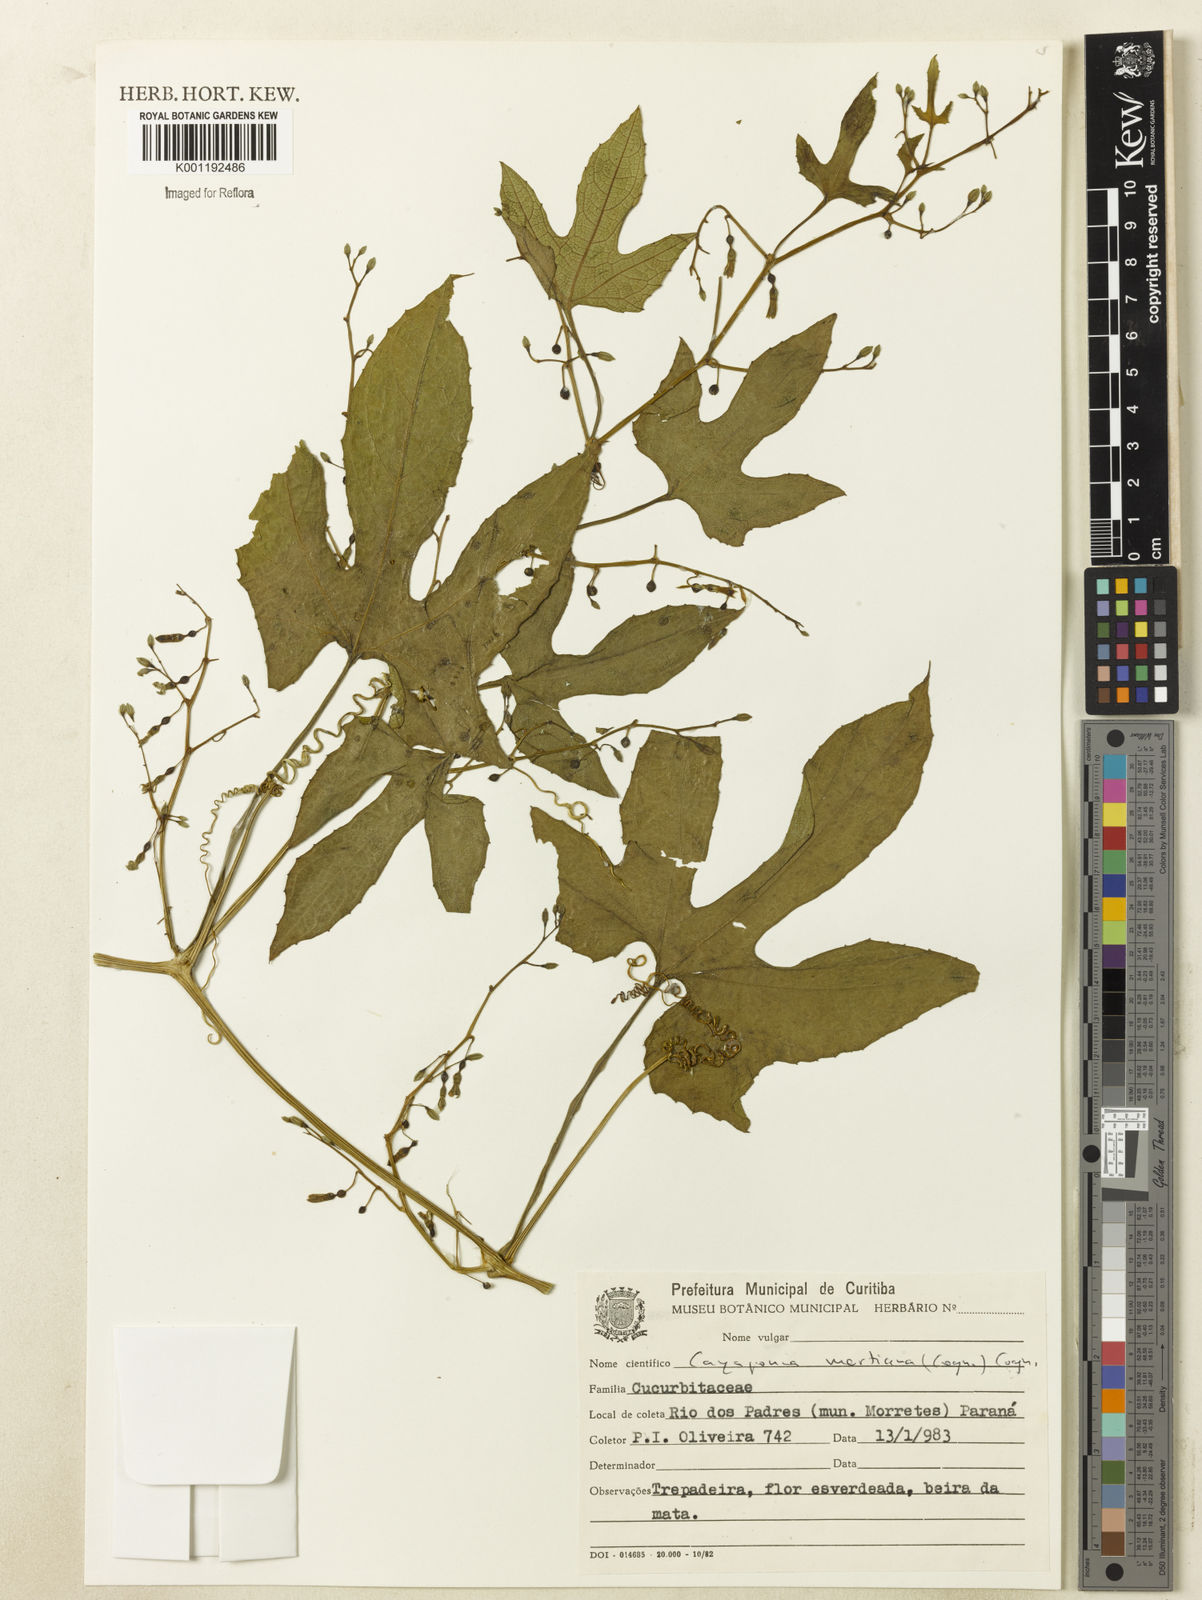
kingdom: Plantae
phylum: Tracheophyta
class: Magnoliopsida
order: Cucurbitales
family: Cucurbitaceae
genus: Cayaponia
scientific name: Cayaponia martiana
